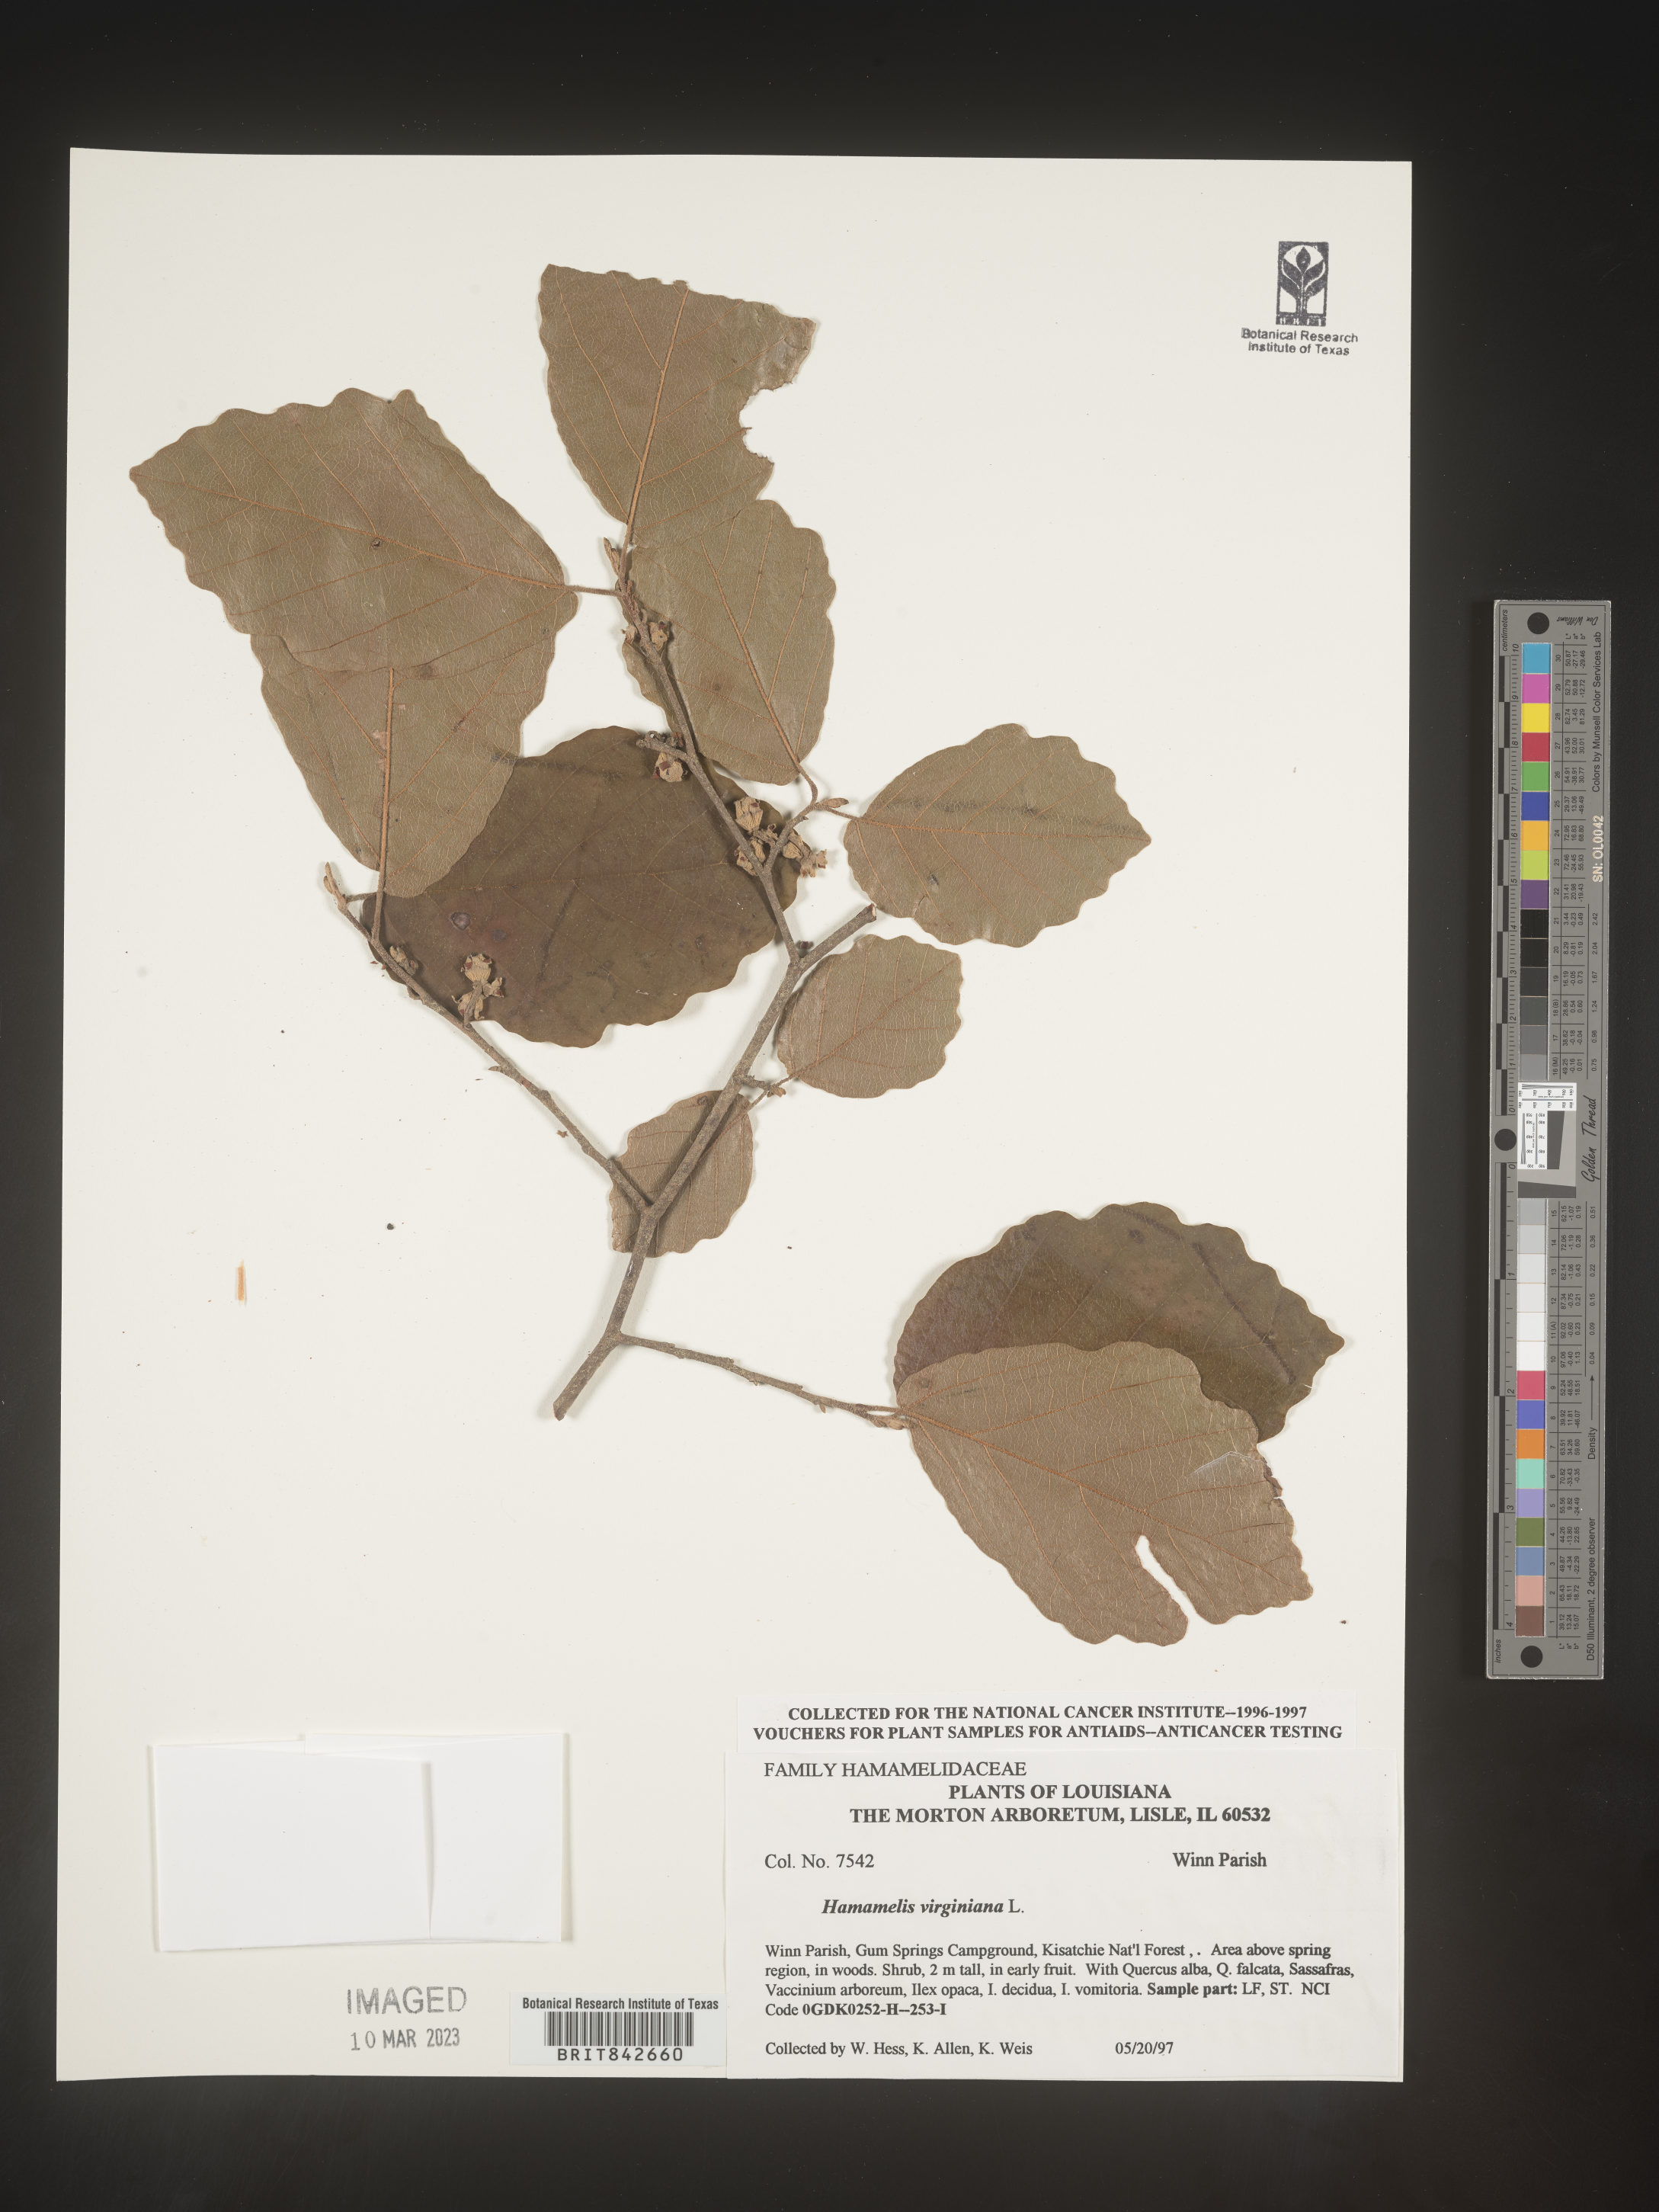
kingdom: Plantae
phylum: Tracheophyta
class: Magnoliopsida
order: Saxifragales
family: Hamamelidaceae
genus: Hamamelis
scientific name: Hamamelis virginiana
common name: Witch-hazel
